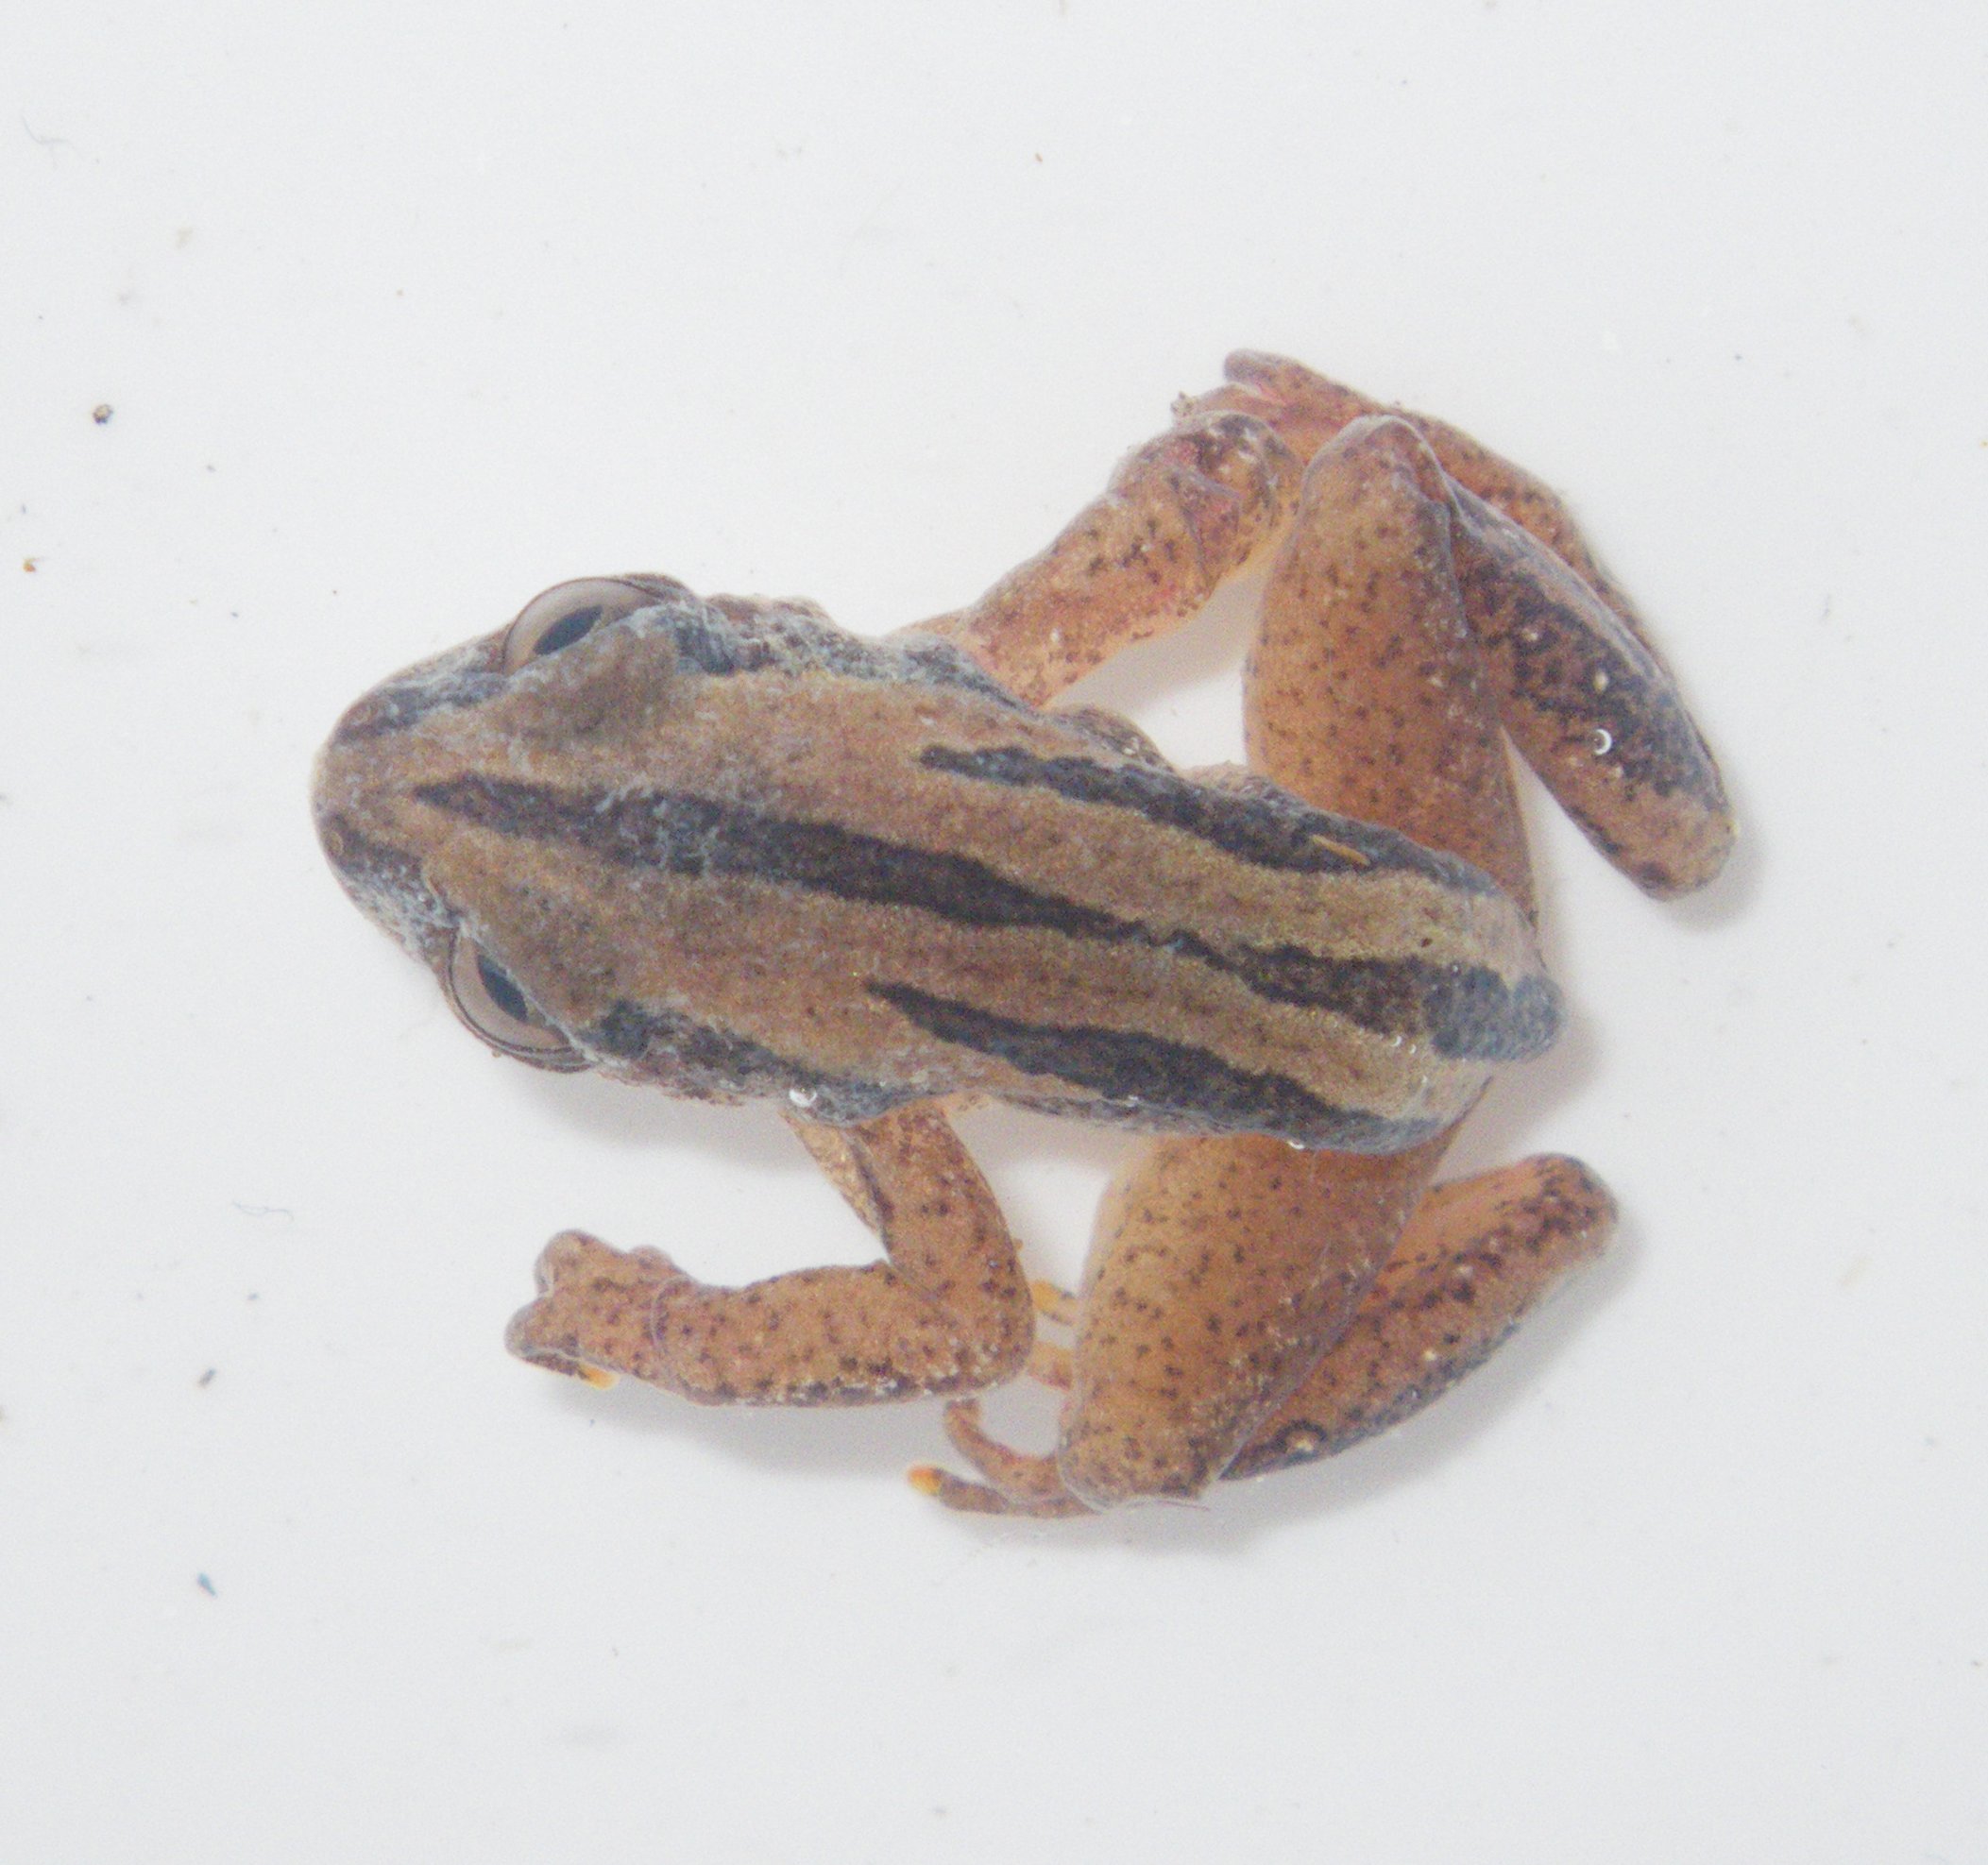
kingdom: Animalia
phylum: Chordata
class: Amphibia
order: Anura
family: Hyperoliidae
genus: Afrixalus
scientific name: Afrixalus wittei
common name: De witte's leaping frog
